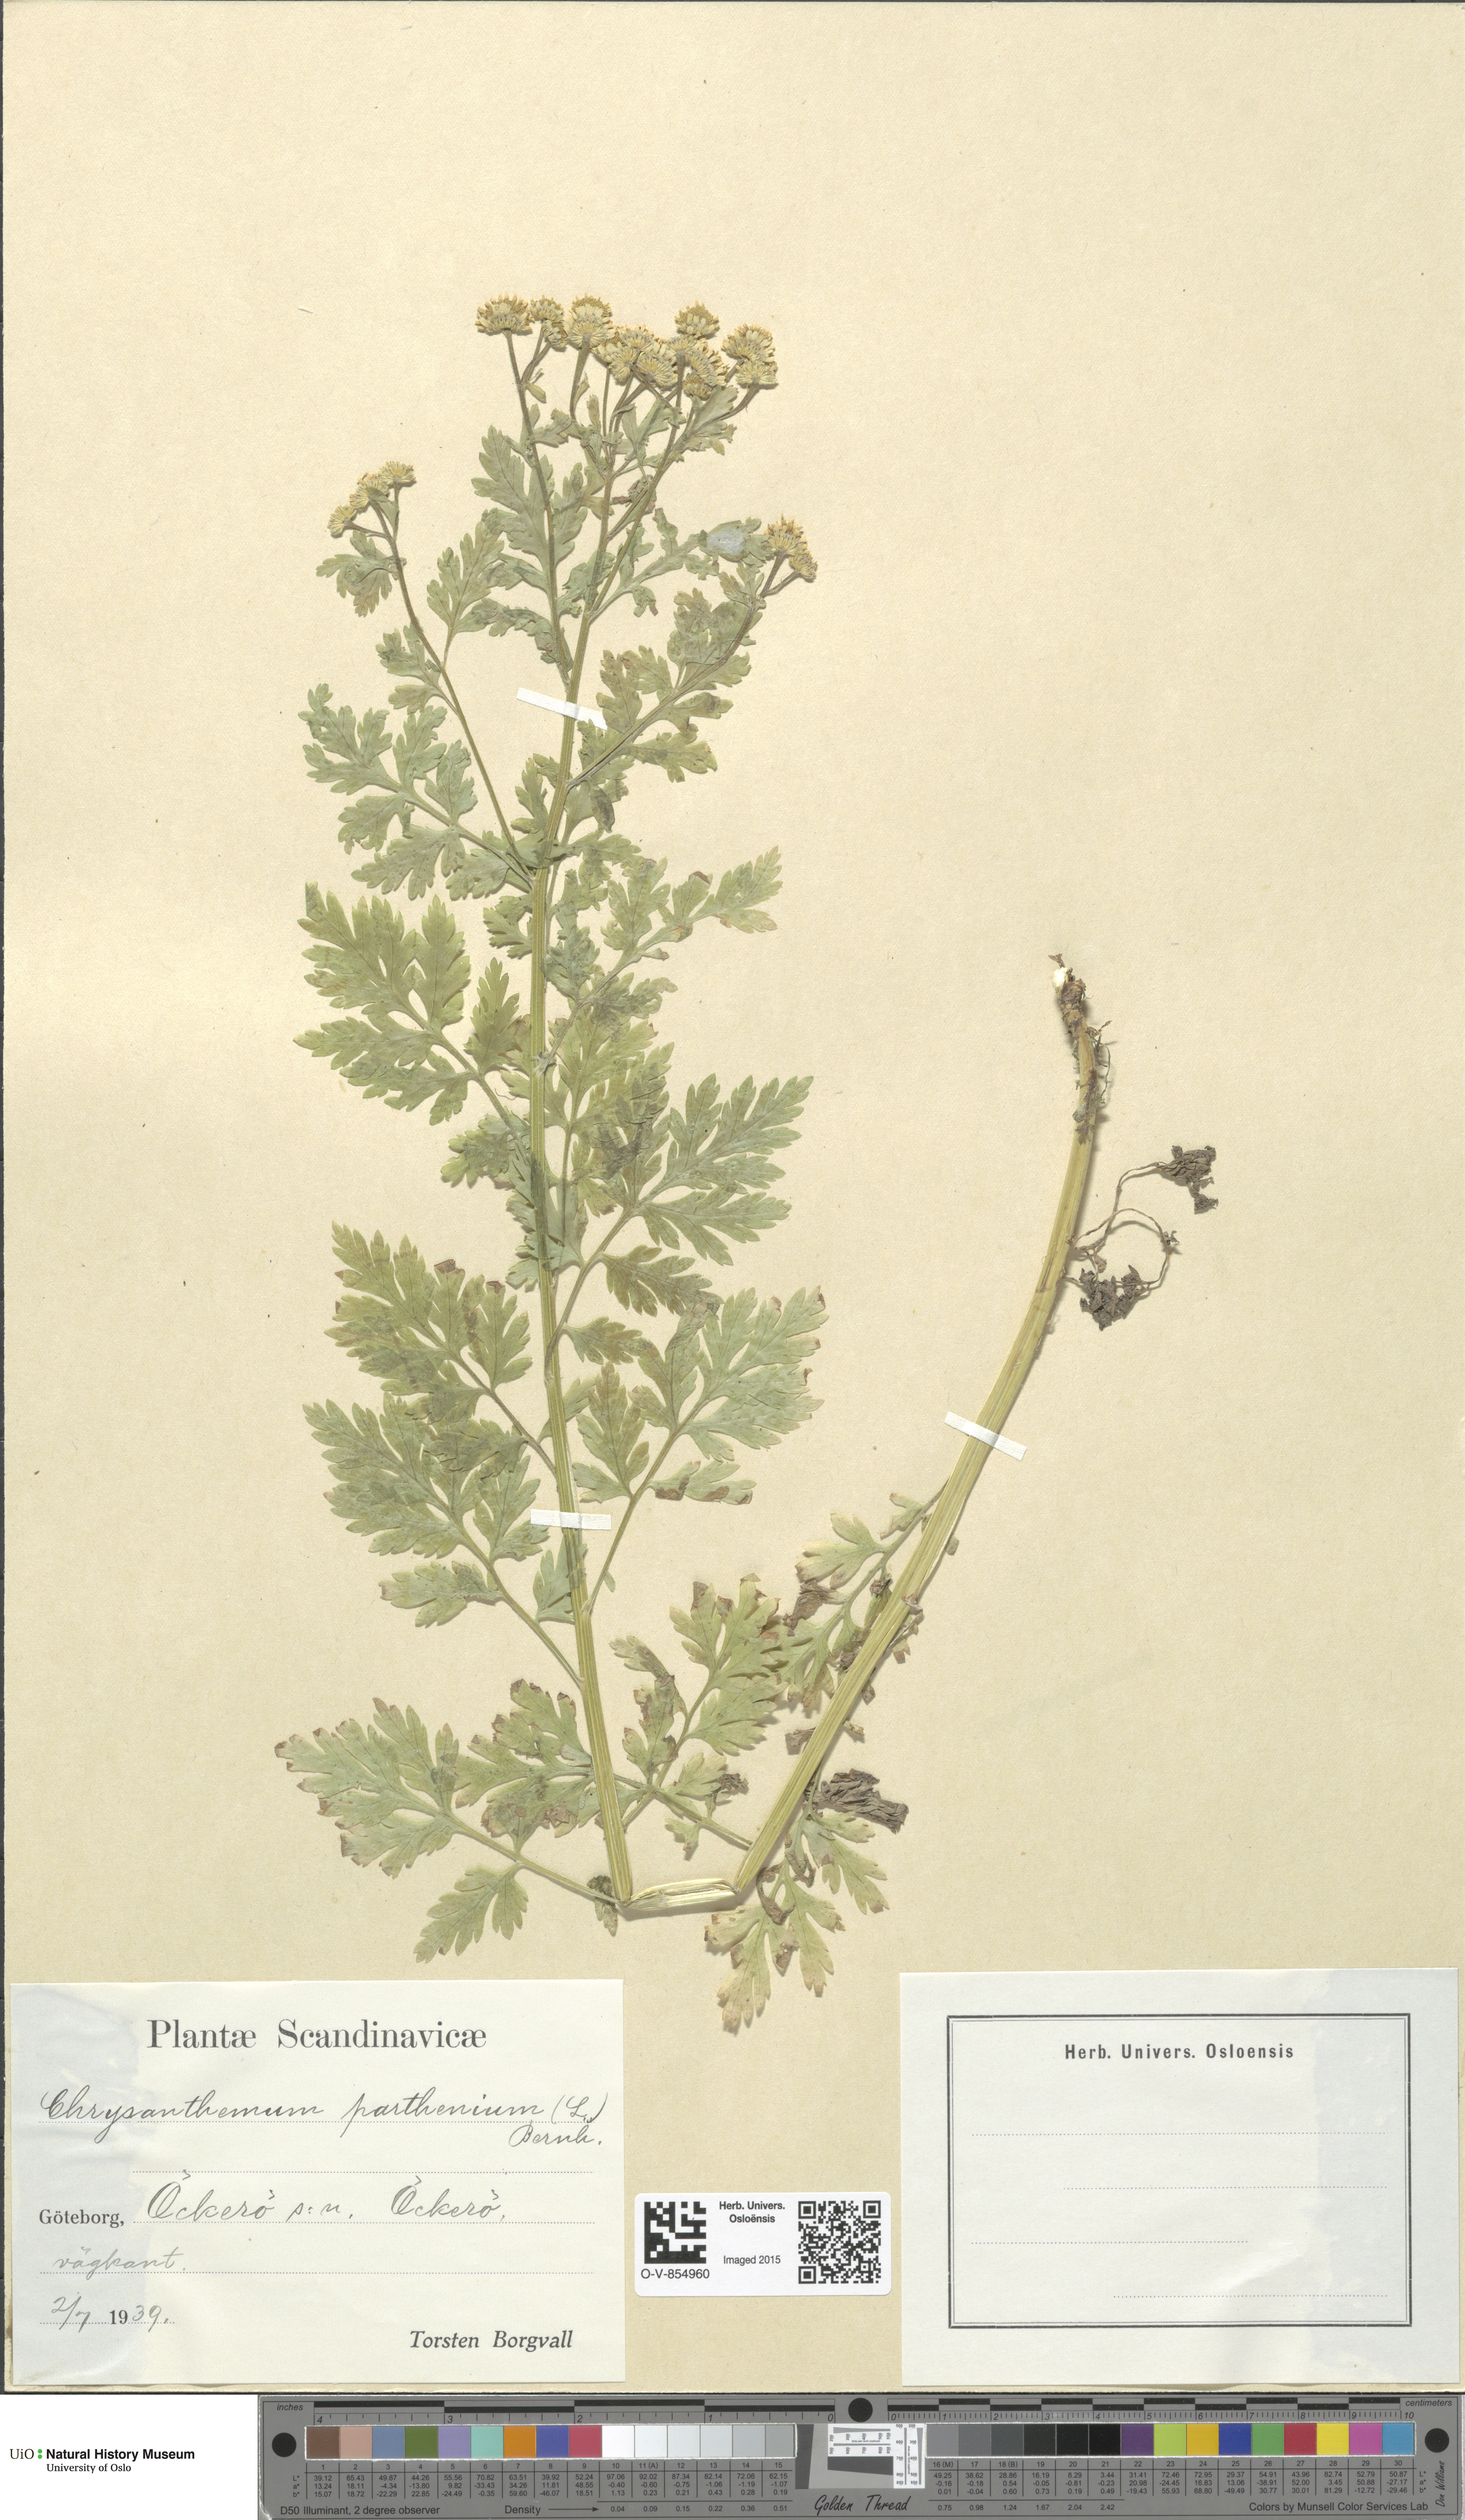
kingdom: Plantae
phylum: Tracheophyta
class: Magnoliopsida
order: Asterales
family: Asteraceae
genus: Tanacetum
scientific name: Tanacetum parthenium
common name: Feverfew
